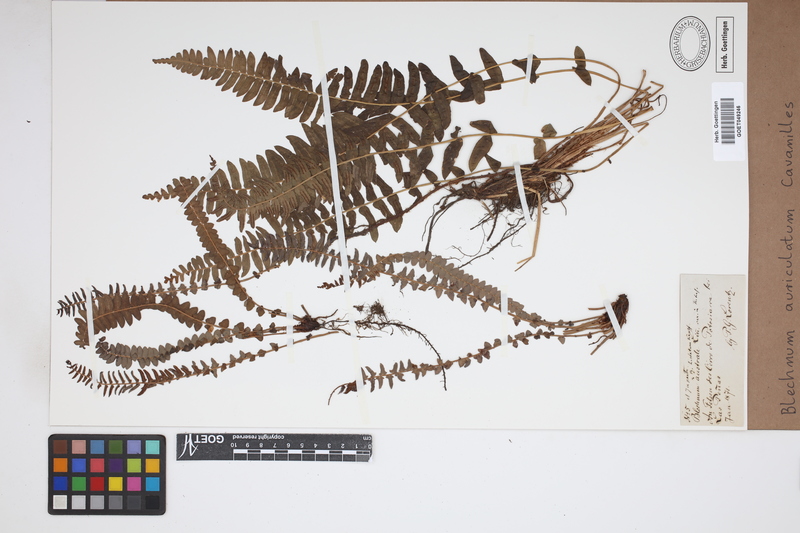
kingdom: Plantae
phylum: Tracheophyta
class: Polypodiopsida
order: Polypodiales
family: Blechnaceae
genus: Blechnum
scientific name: Blechnum auriculatum
